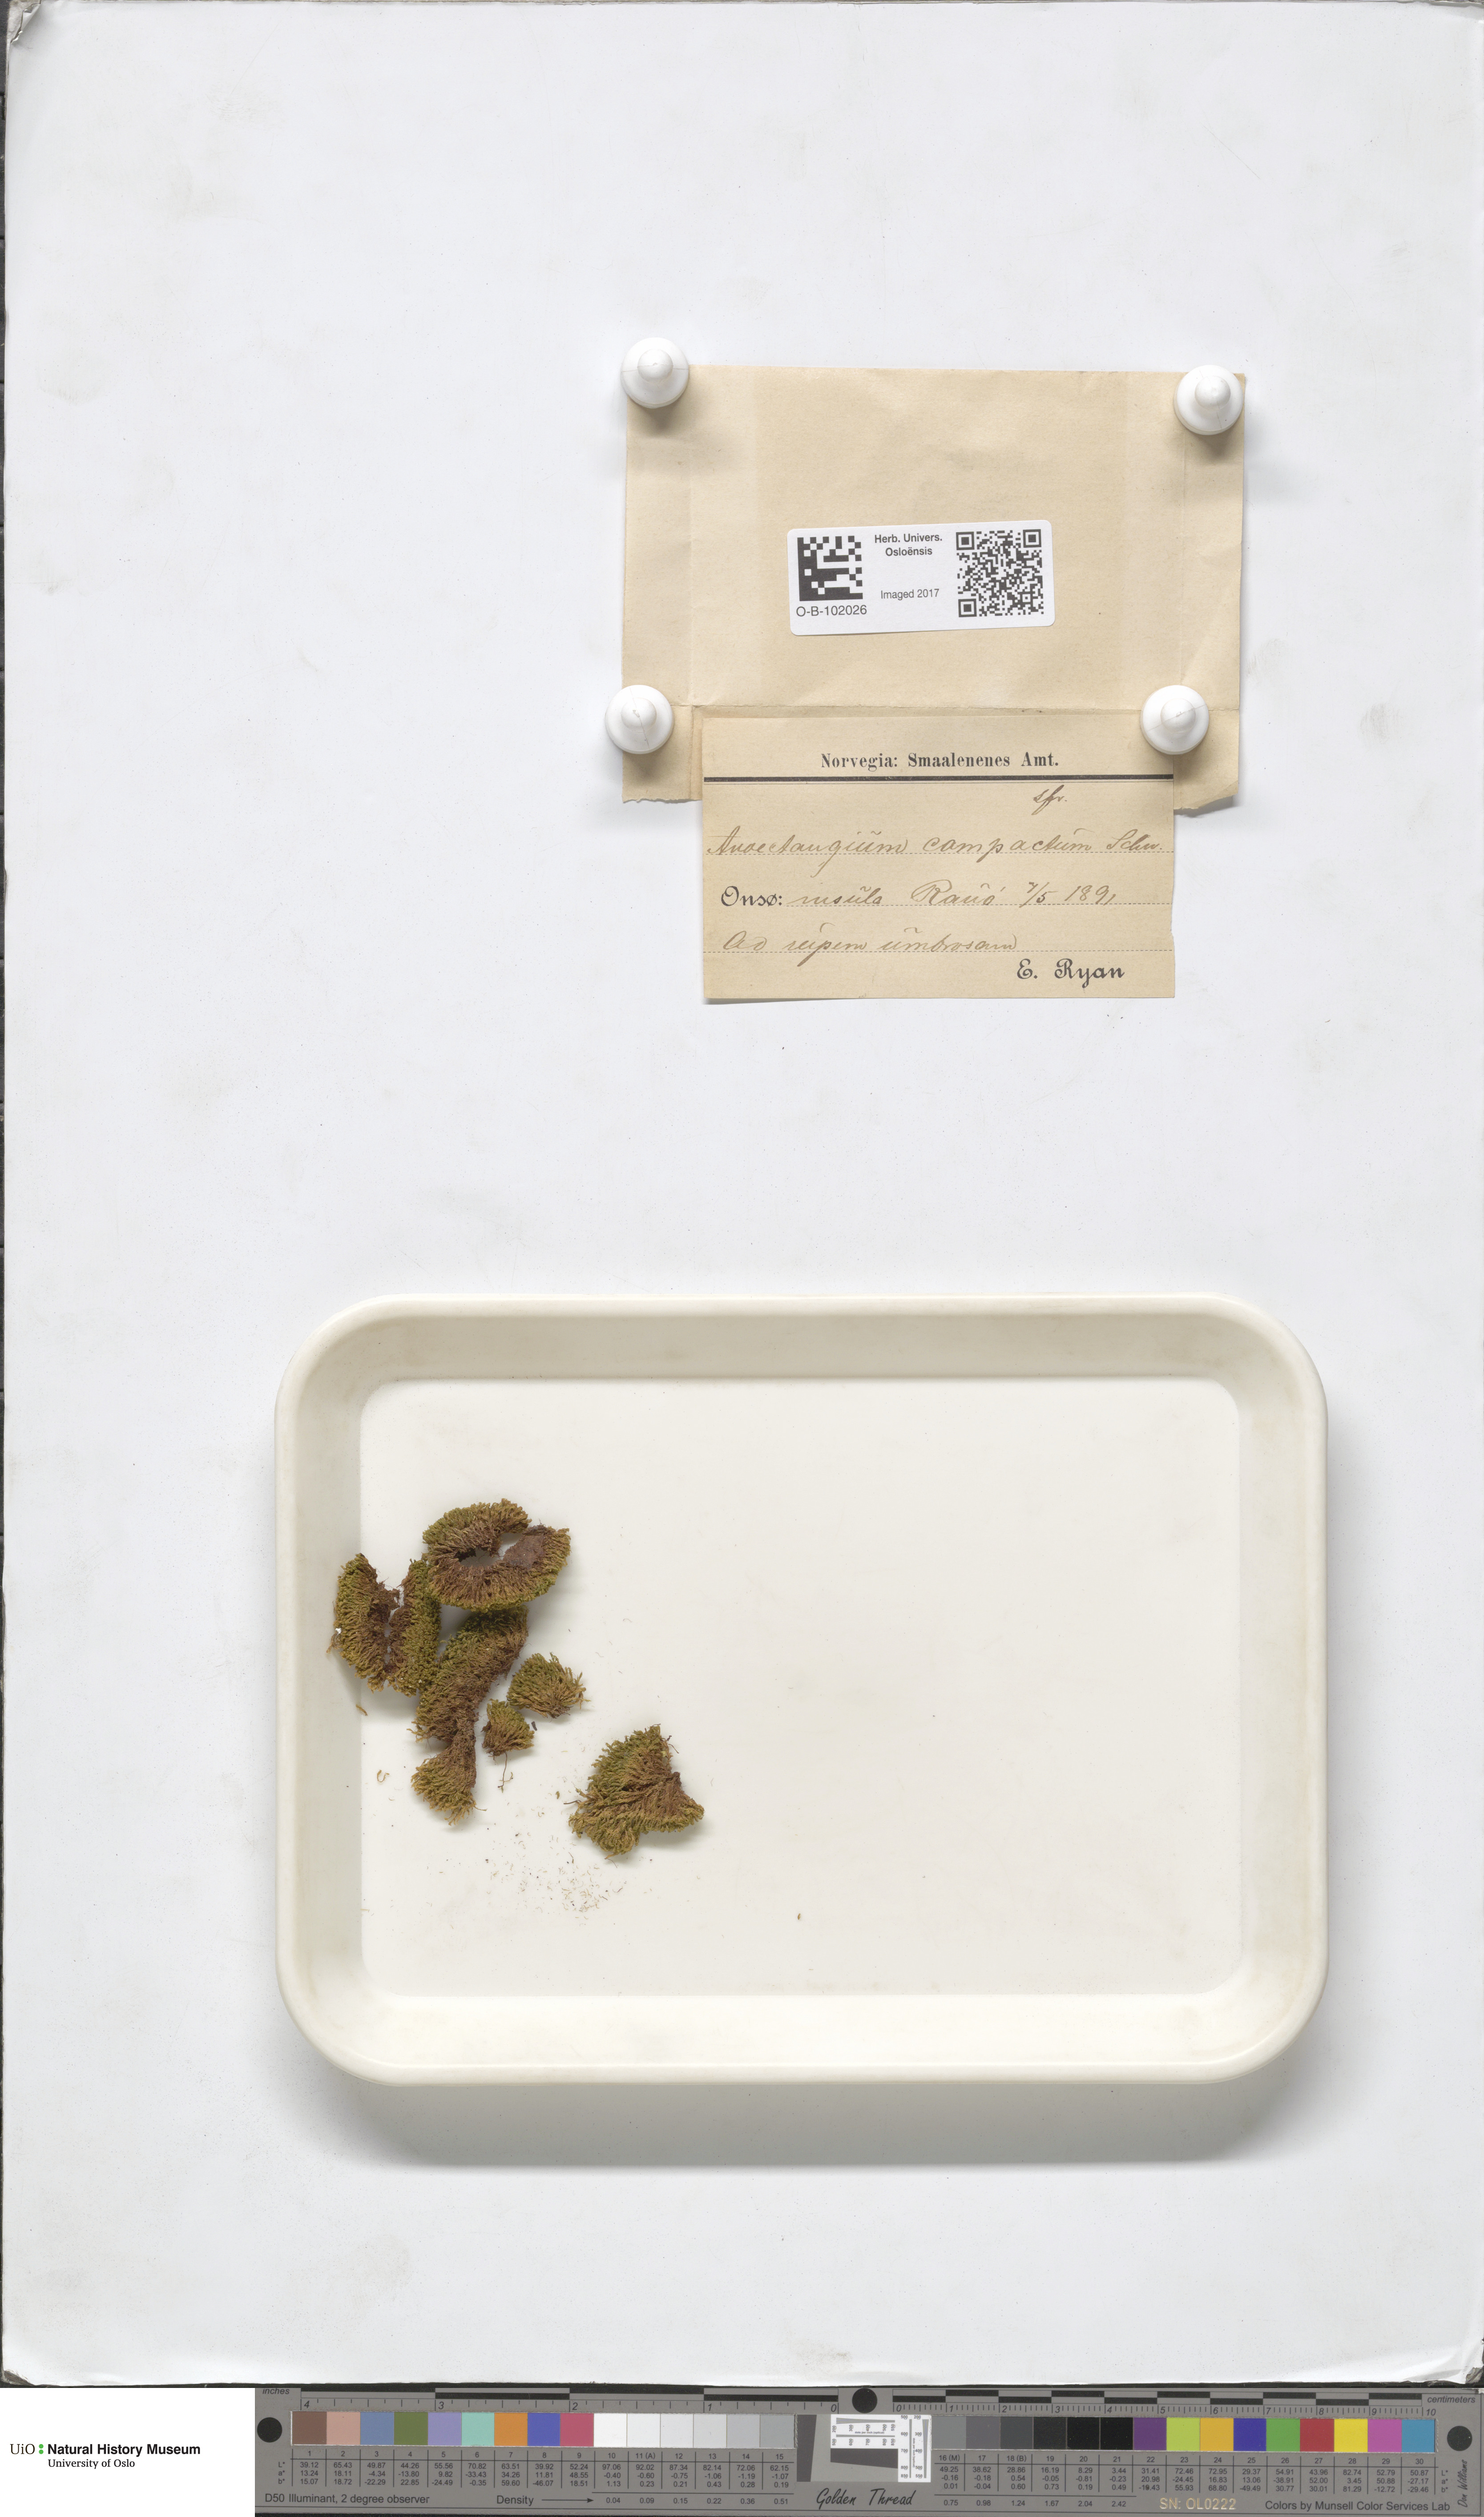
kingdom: Plantae
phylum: Bryophyta
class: Bryopsida
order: Pottiales
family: Pottiaceae
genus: Anoectangium
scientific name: Anoectangium aestivum
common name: Summer-moss
